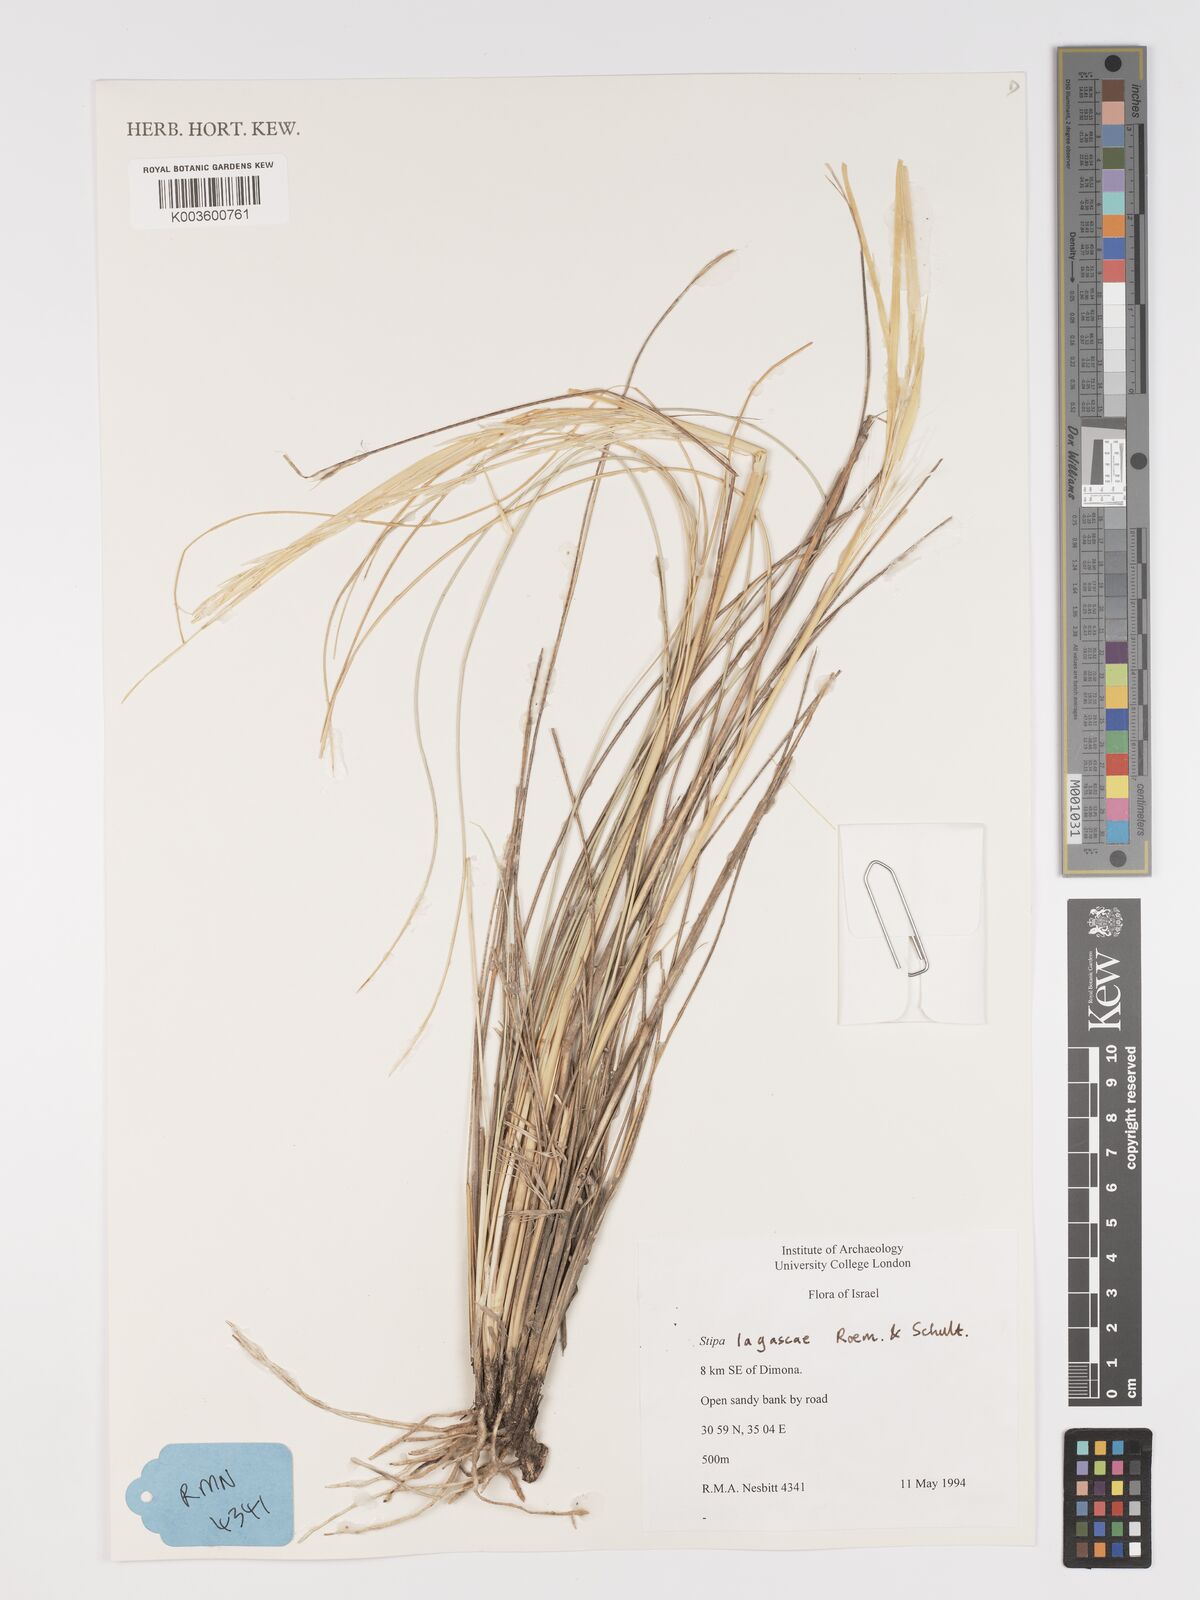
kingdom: Plantae
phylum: Tracheophyta
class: Liliopsida
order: Poales
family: Poaceae
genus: Stipa
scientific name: Stipa lagascae
